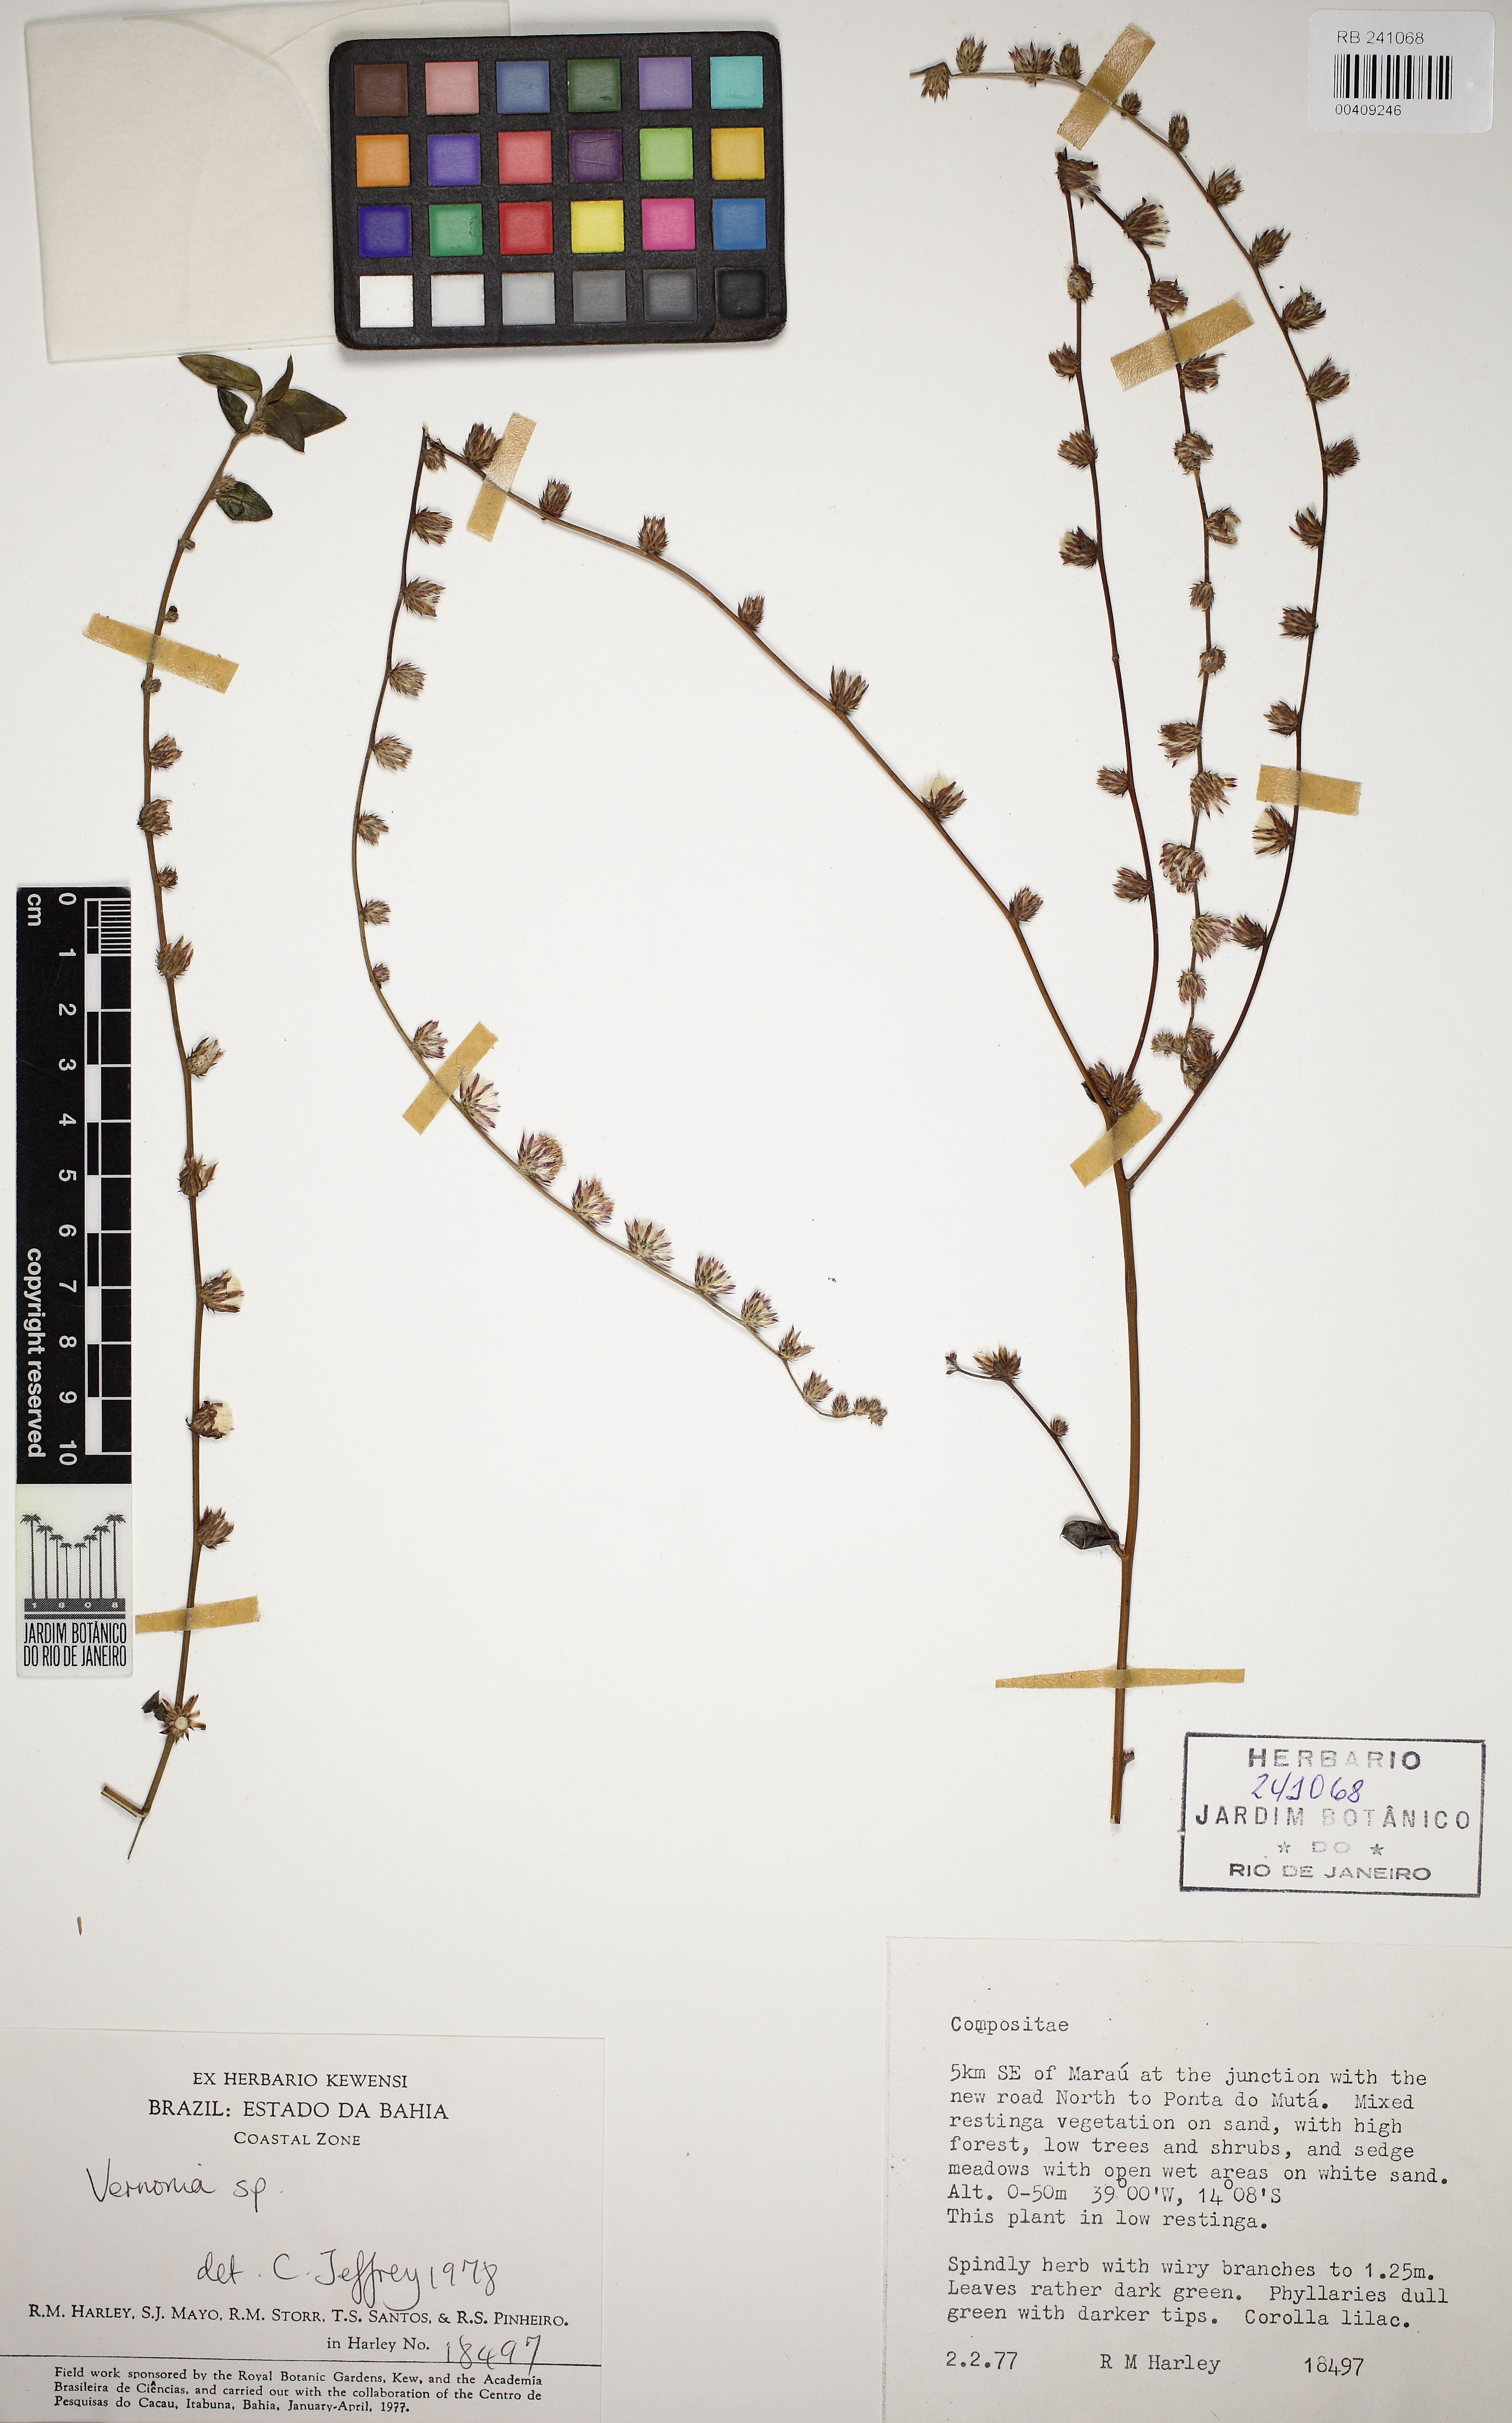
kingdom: Plantae
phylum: Tracheophyta
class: Magnoliopsida
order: Asterales
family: Asteraceae
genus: Vernonia
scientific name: Vernonia
